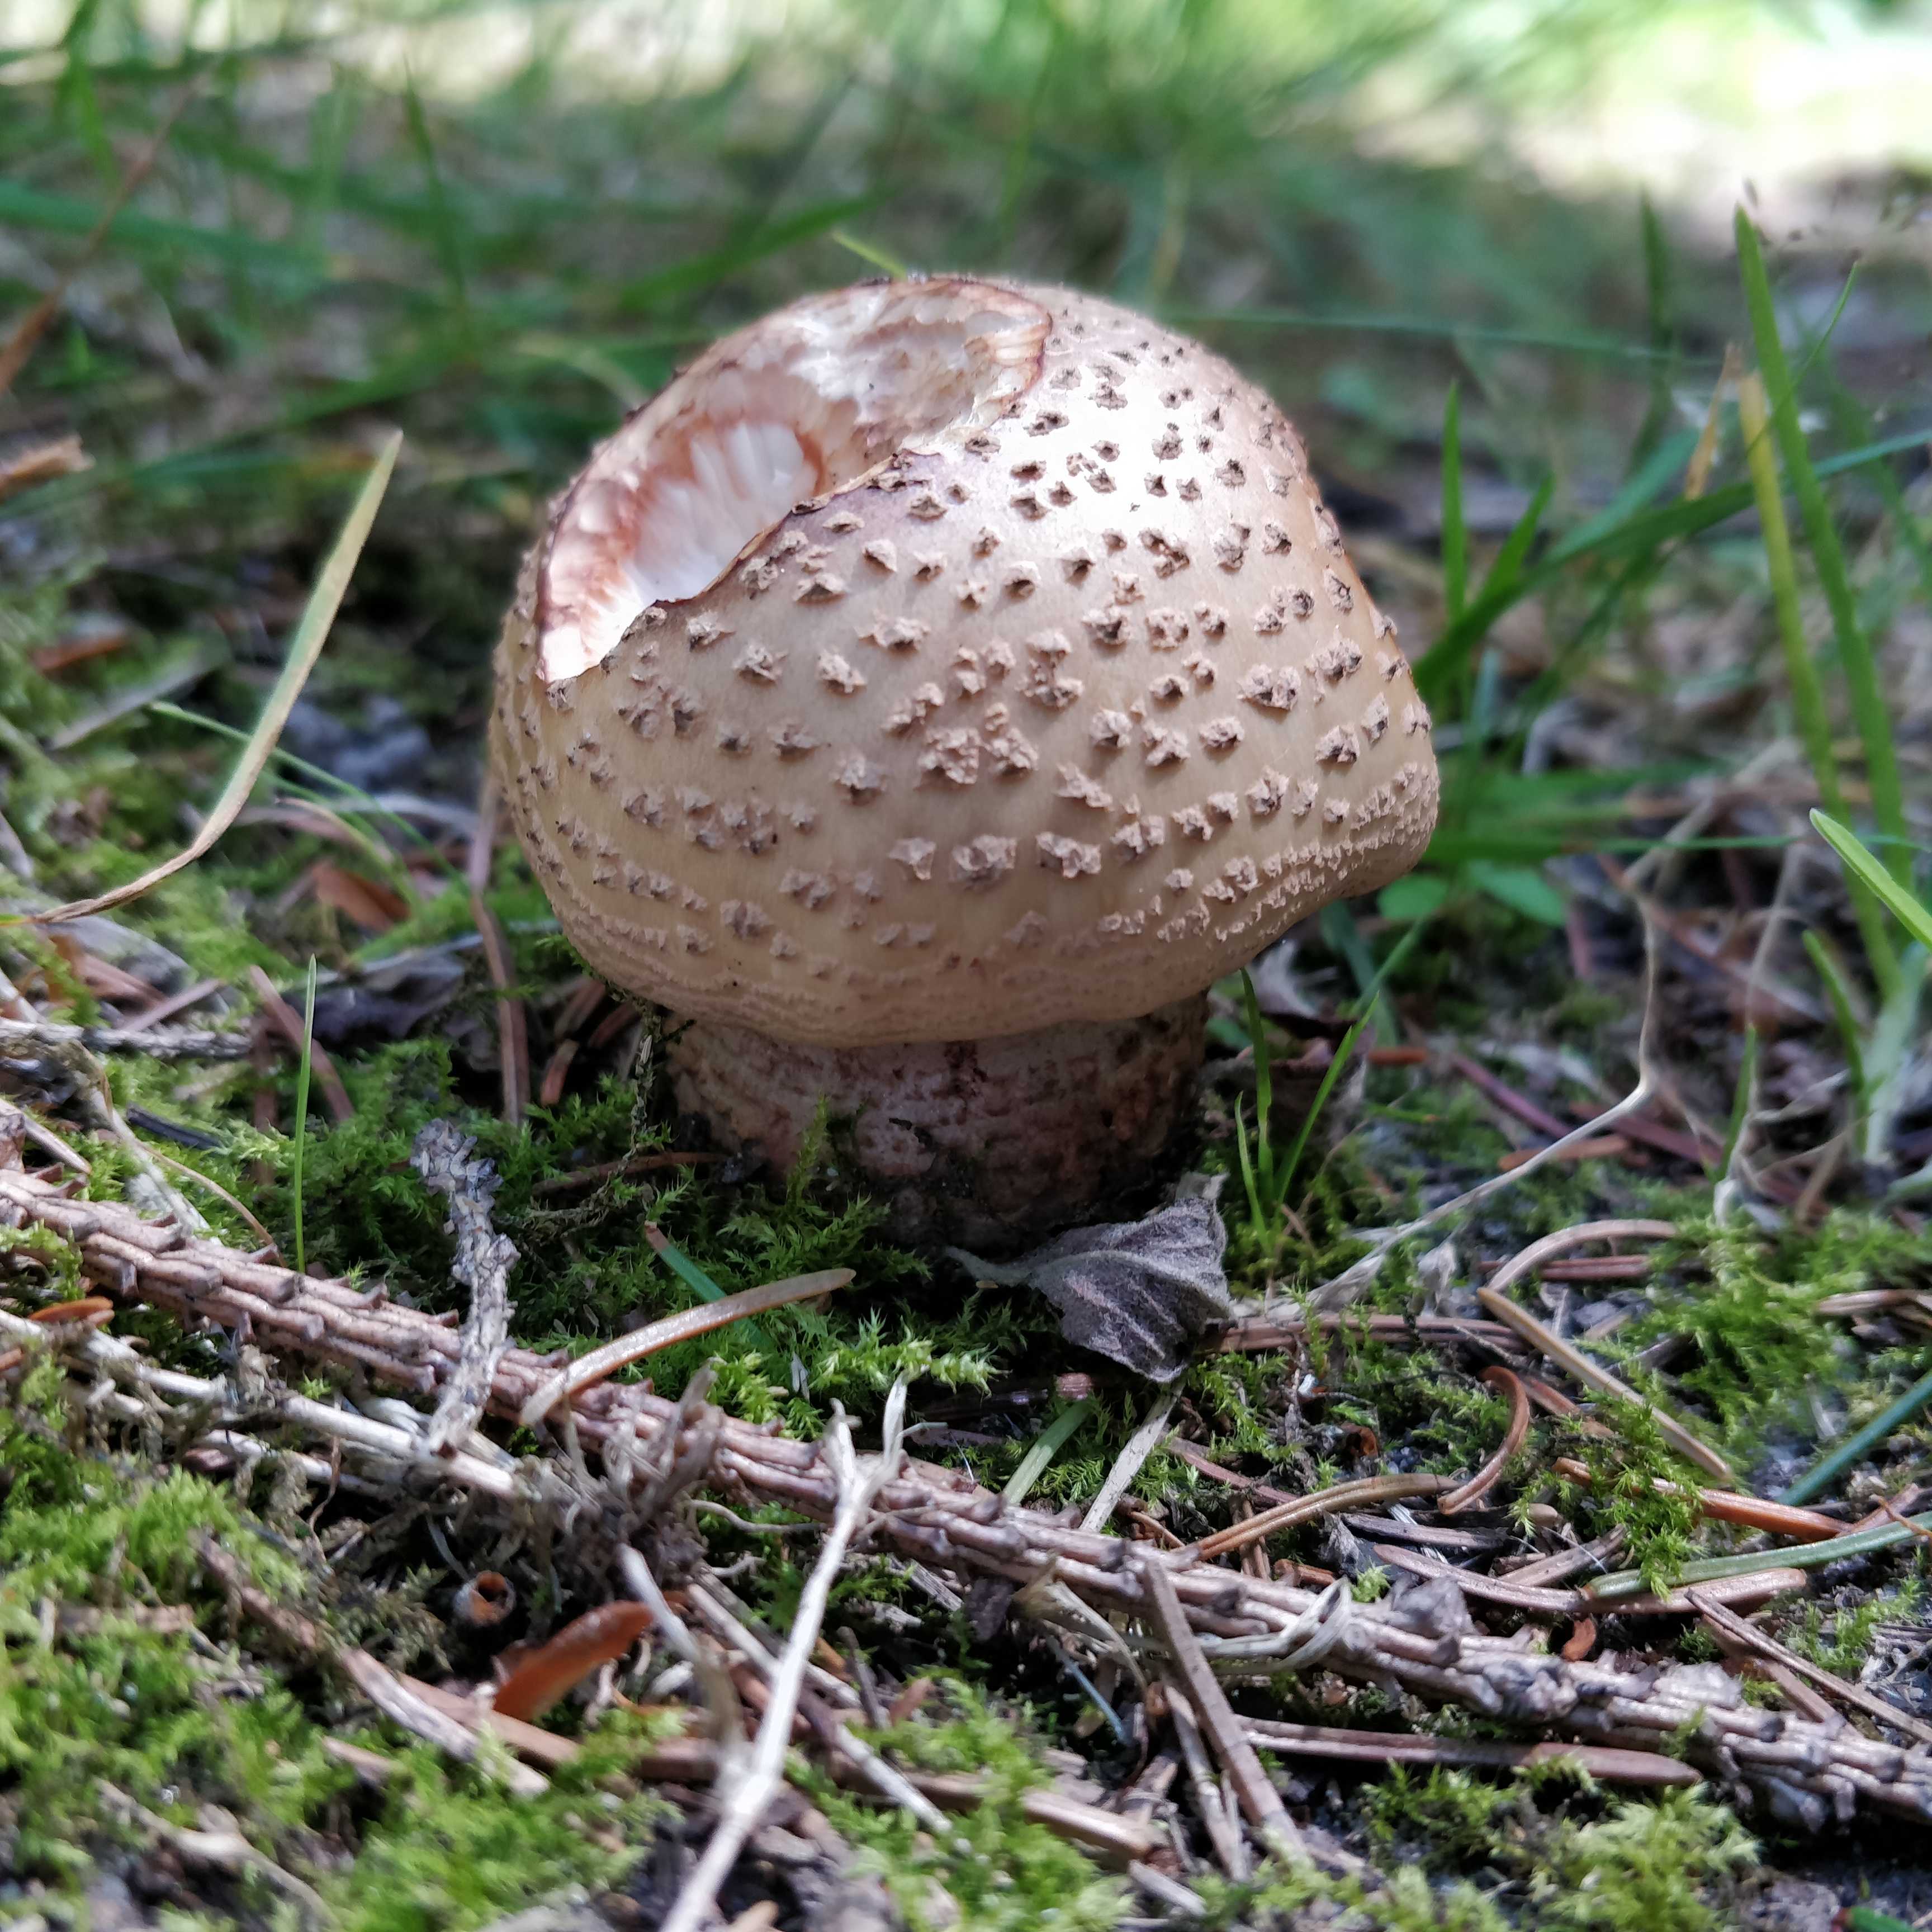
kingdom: Fungi
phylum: Basidiomycota
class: Agaricomycetes
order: Agaricales
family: Amanitaceae
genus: Amanita
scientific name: Amanita rubescens
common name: rødmende fluesvamp
